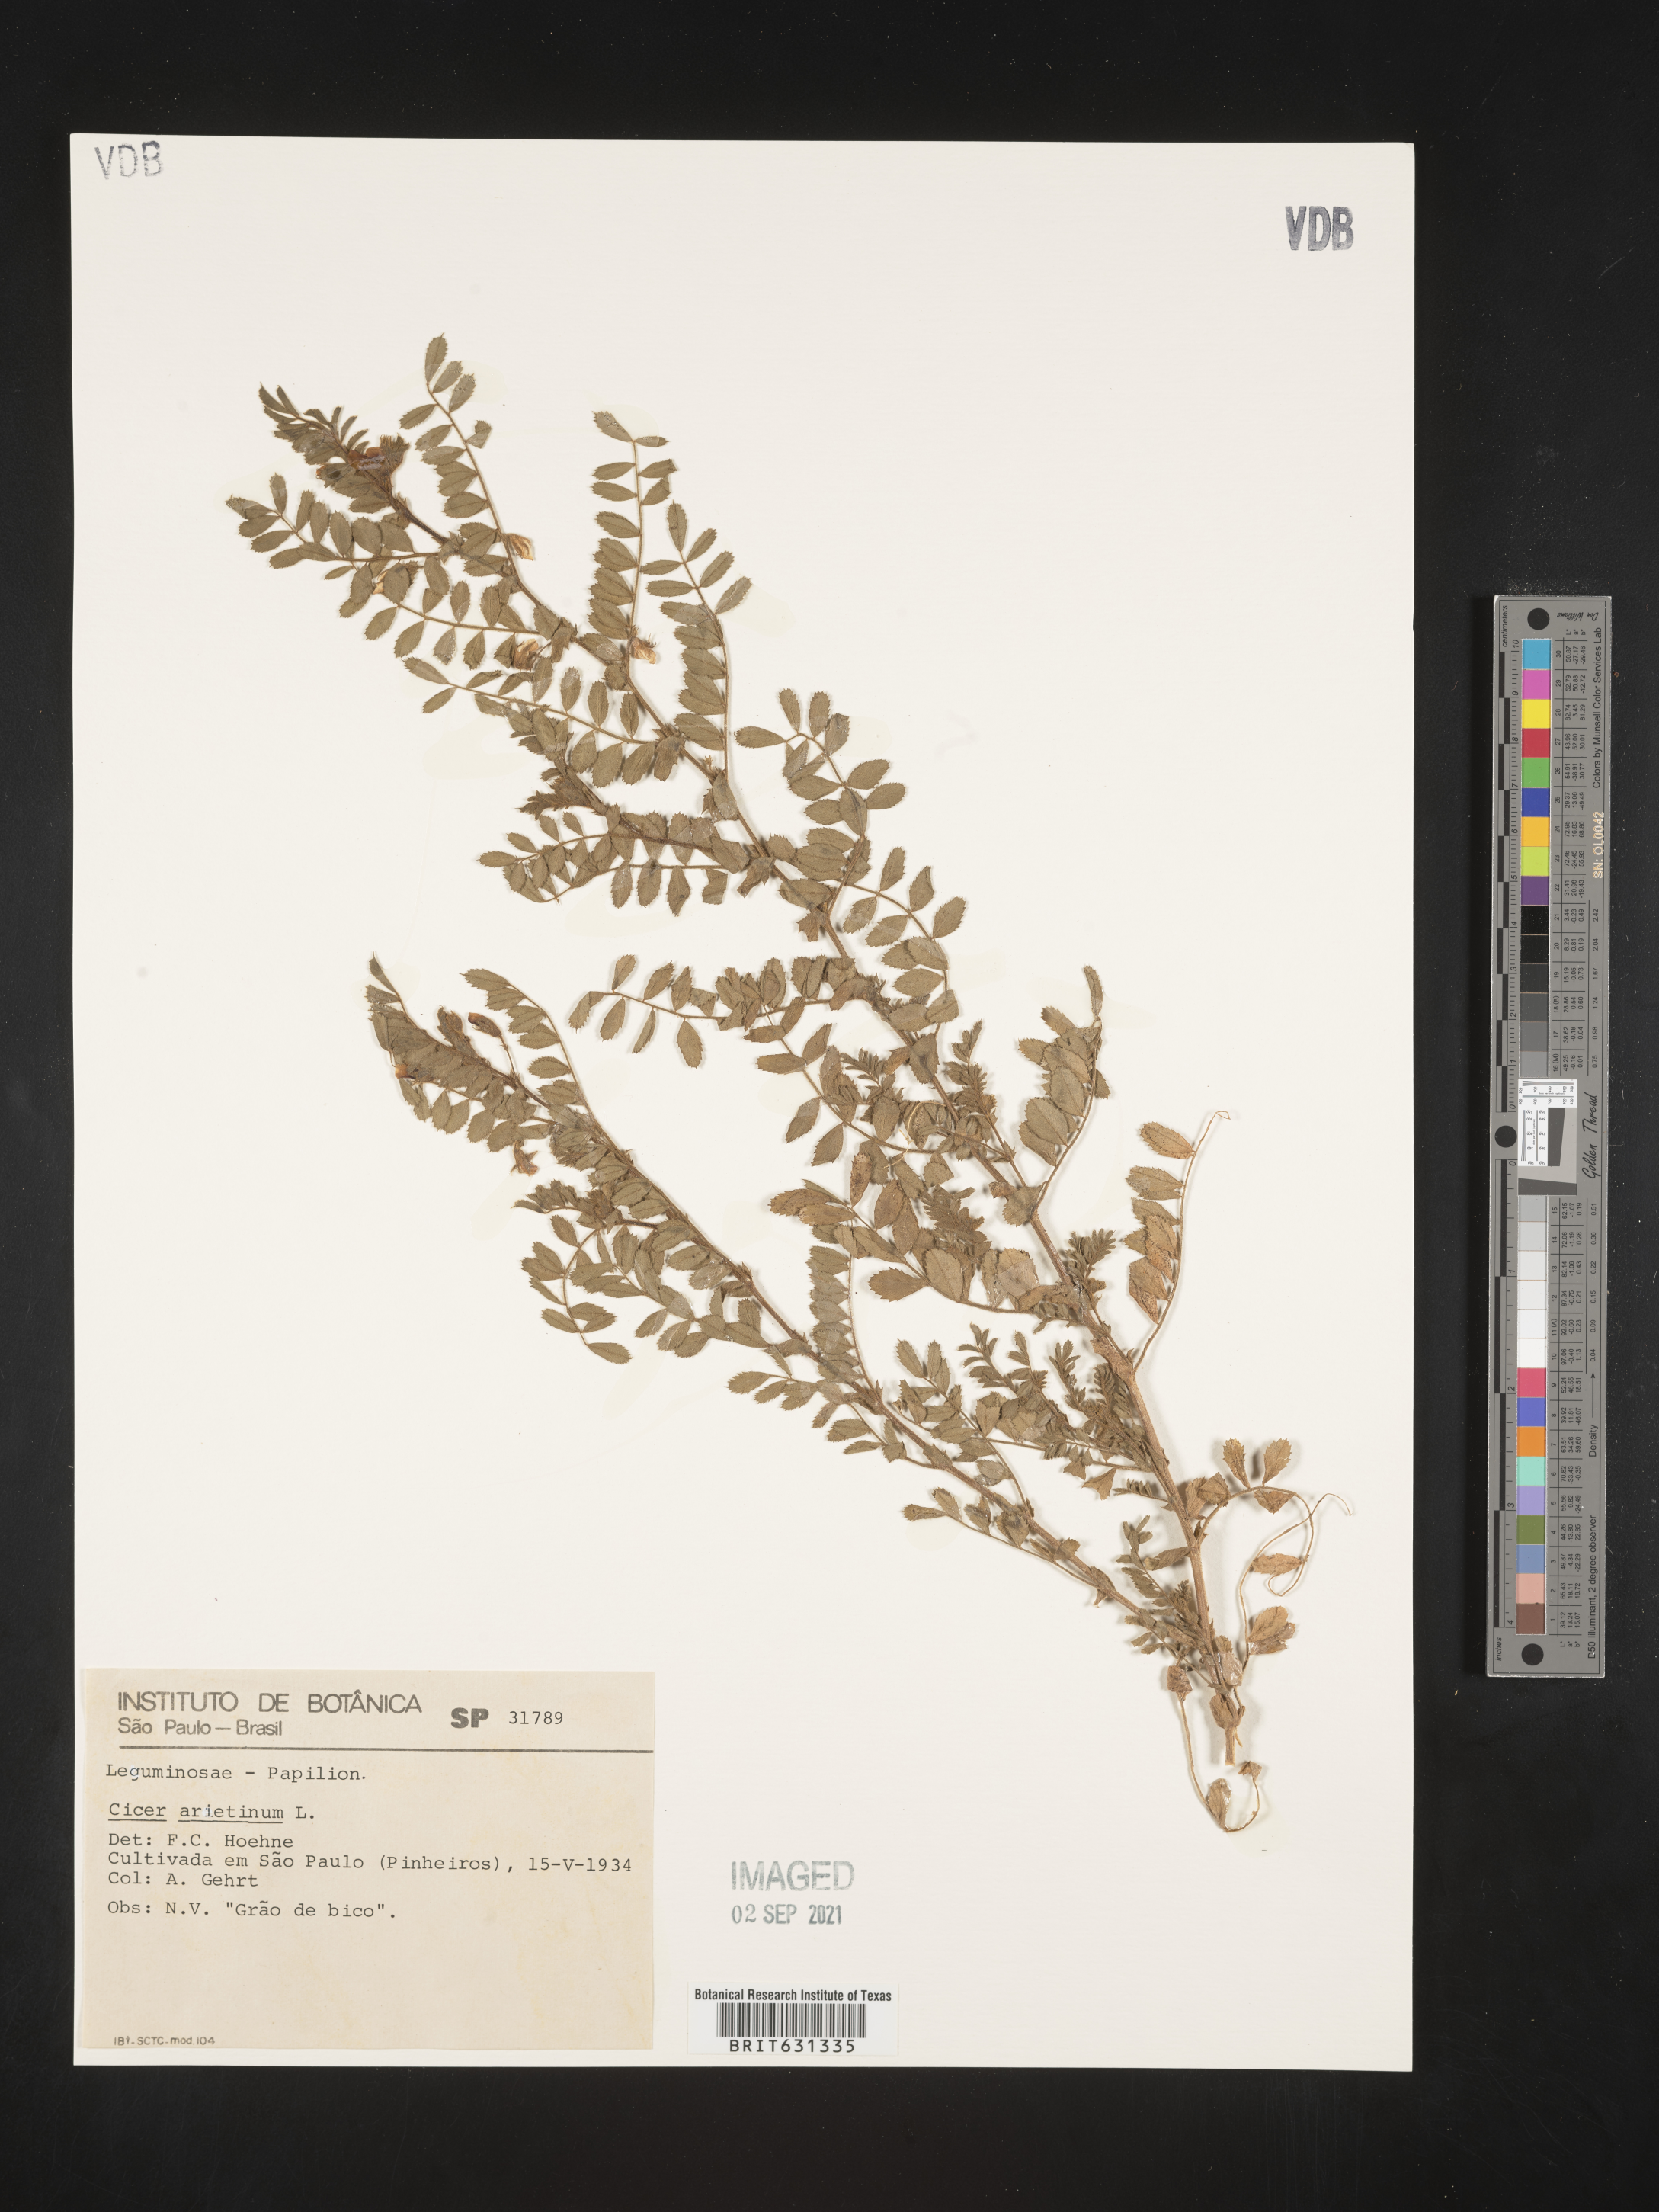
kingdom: Plantae
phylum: Tracheophyta
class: Magnoliopsida
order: Fabales
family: Fabaceae
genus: Cicer
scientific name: Cicer arietinum
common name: Chick pea
